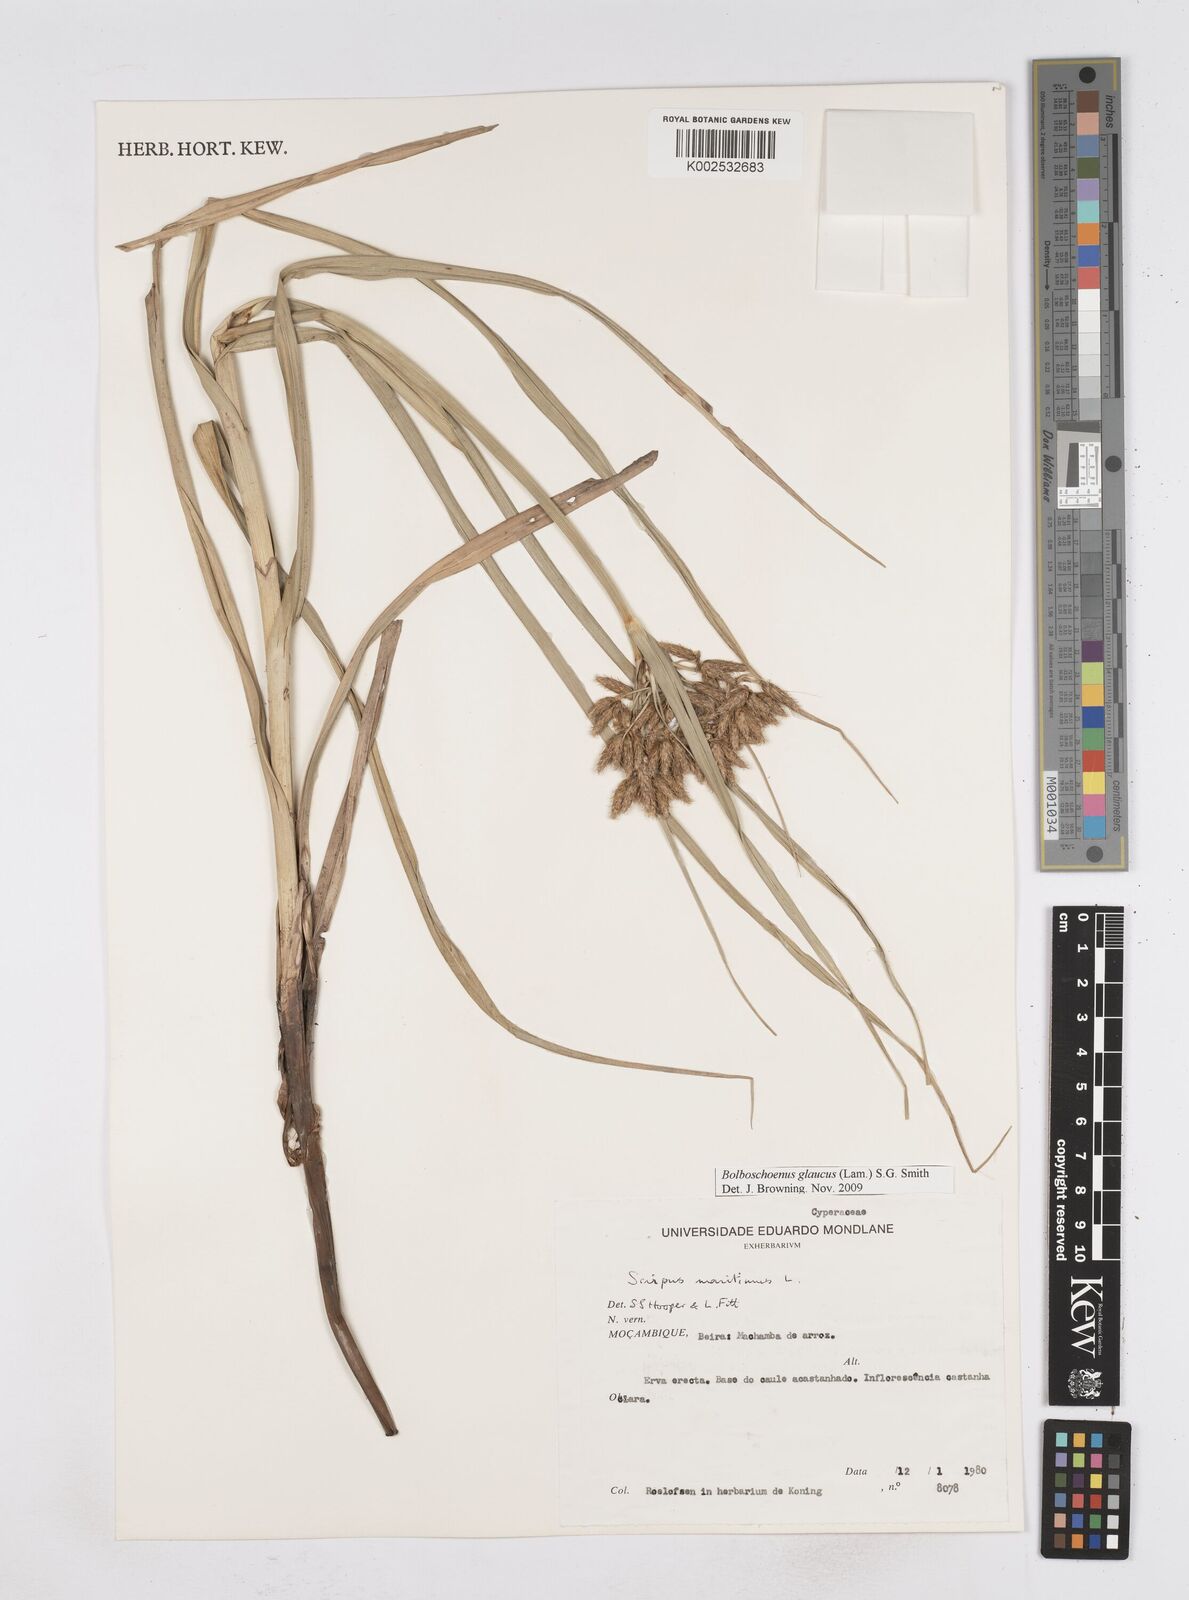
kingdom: Plantae
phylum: Tracheophyta
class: Liliopsida
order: Poales
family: Cyperaceae
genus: Bolboschoenus
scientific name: Bolboschoenus glaucus
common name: Tuberous bulrush
